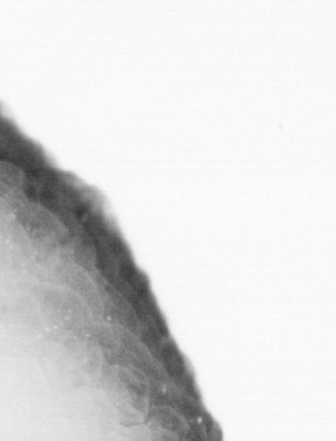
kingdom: Animalia
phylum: Chordata
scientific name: Chordata
